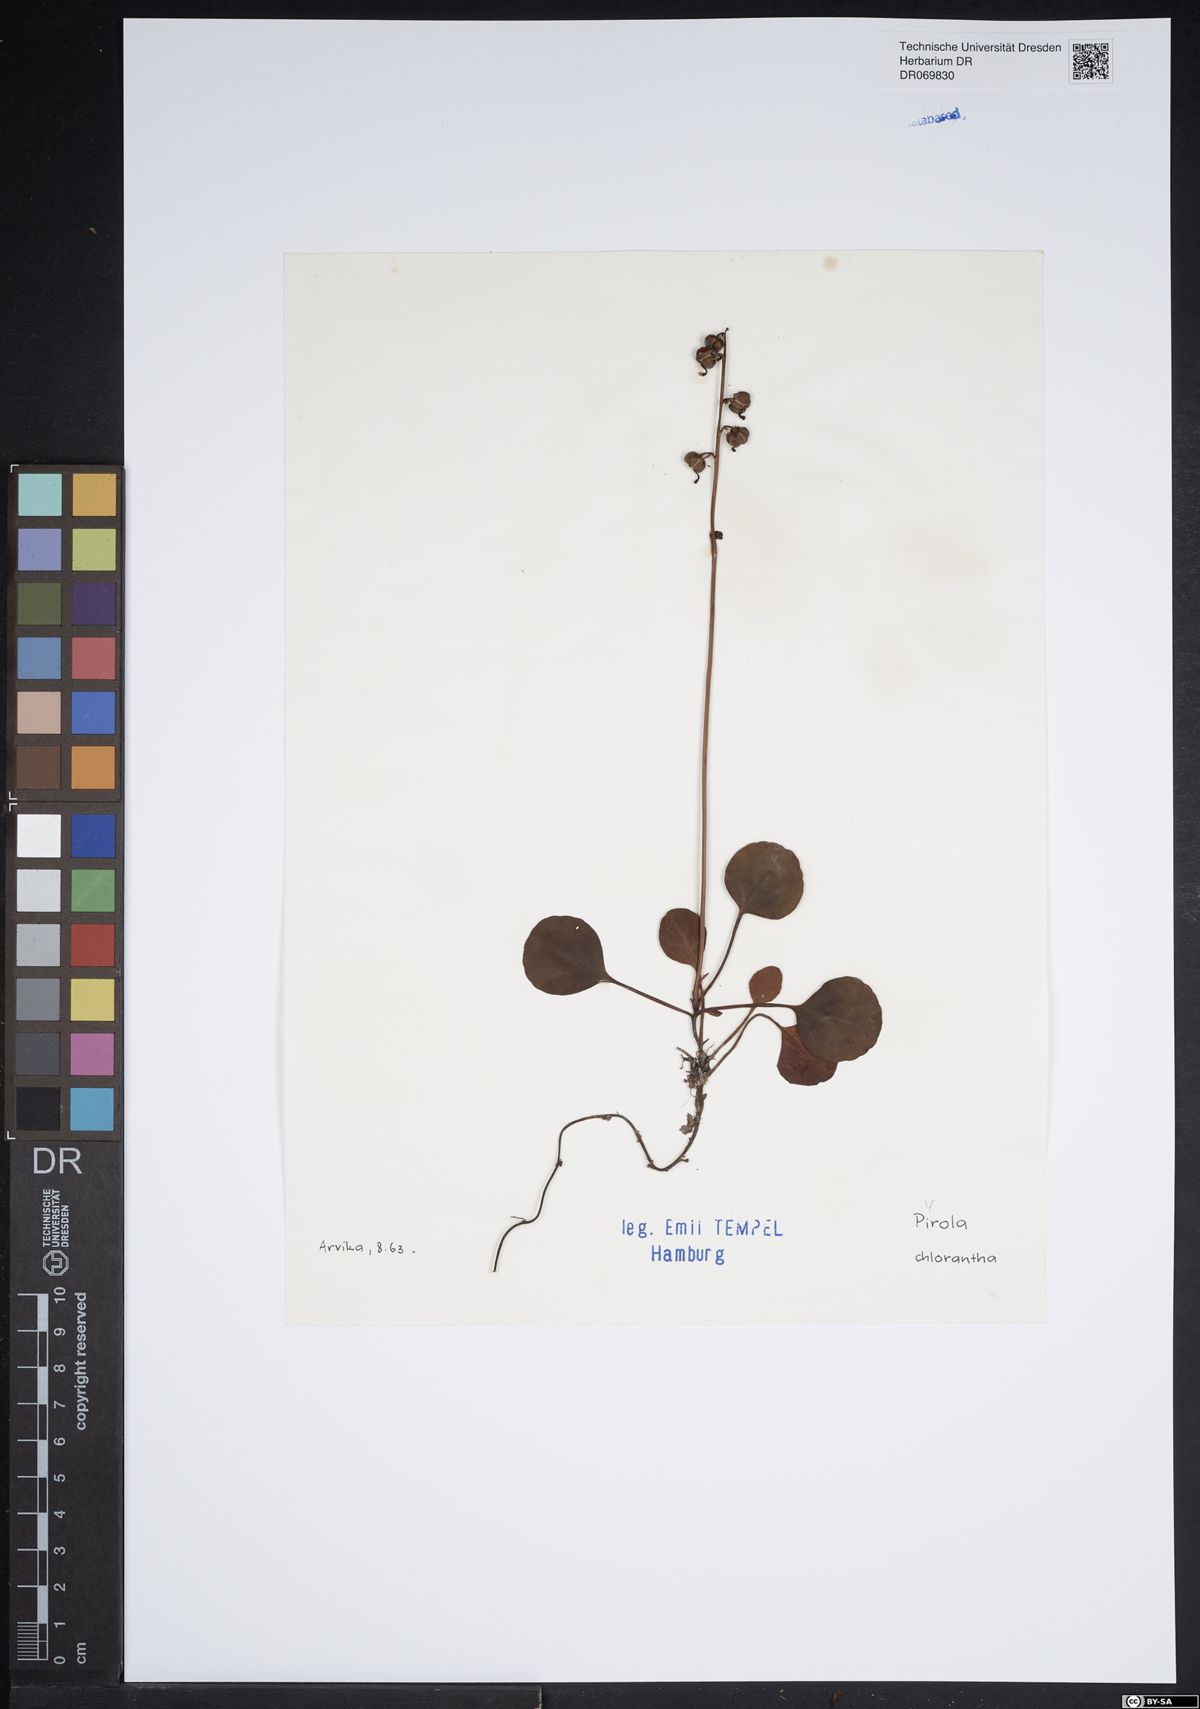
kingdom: Plantae
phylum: Tracheophyta
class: Magnoliopsida
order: Ericales
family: Ericaceae
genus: Pyrola
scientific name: Pyrola chlorantha
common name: Green wintergreen
